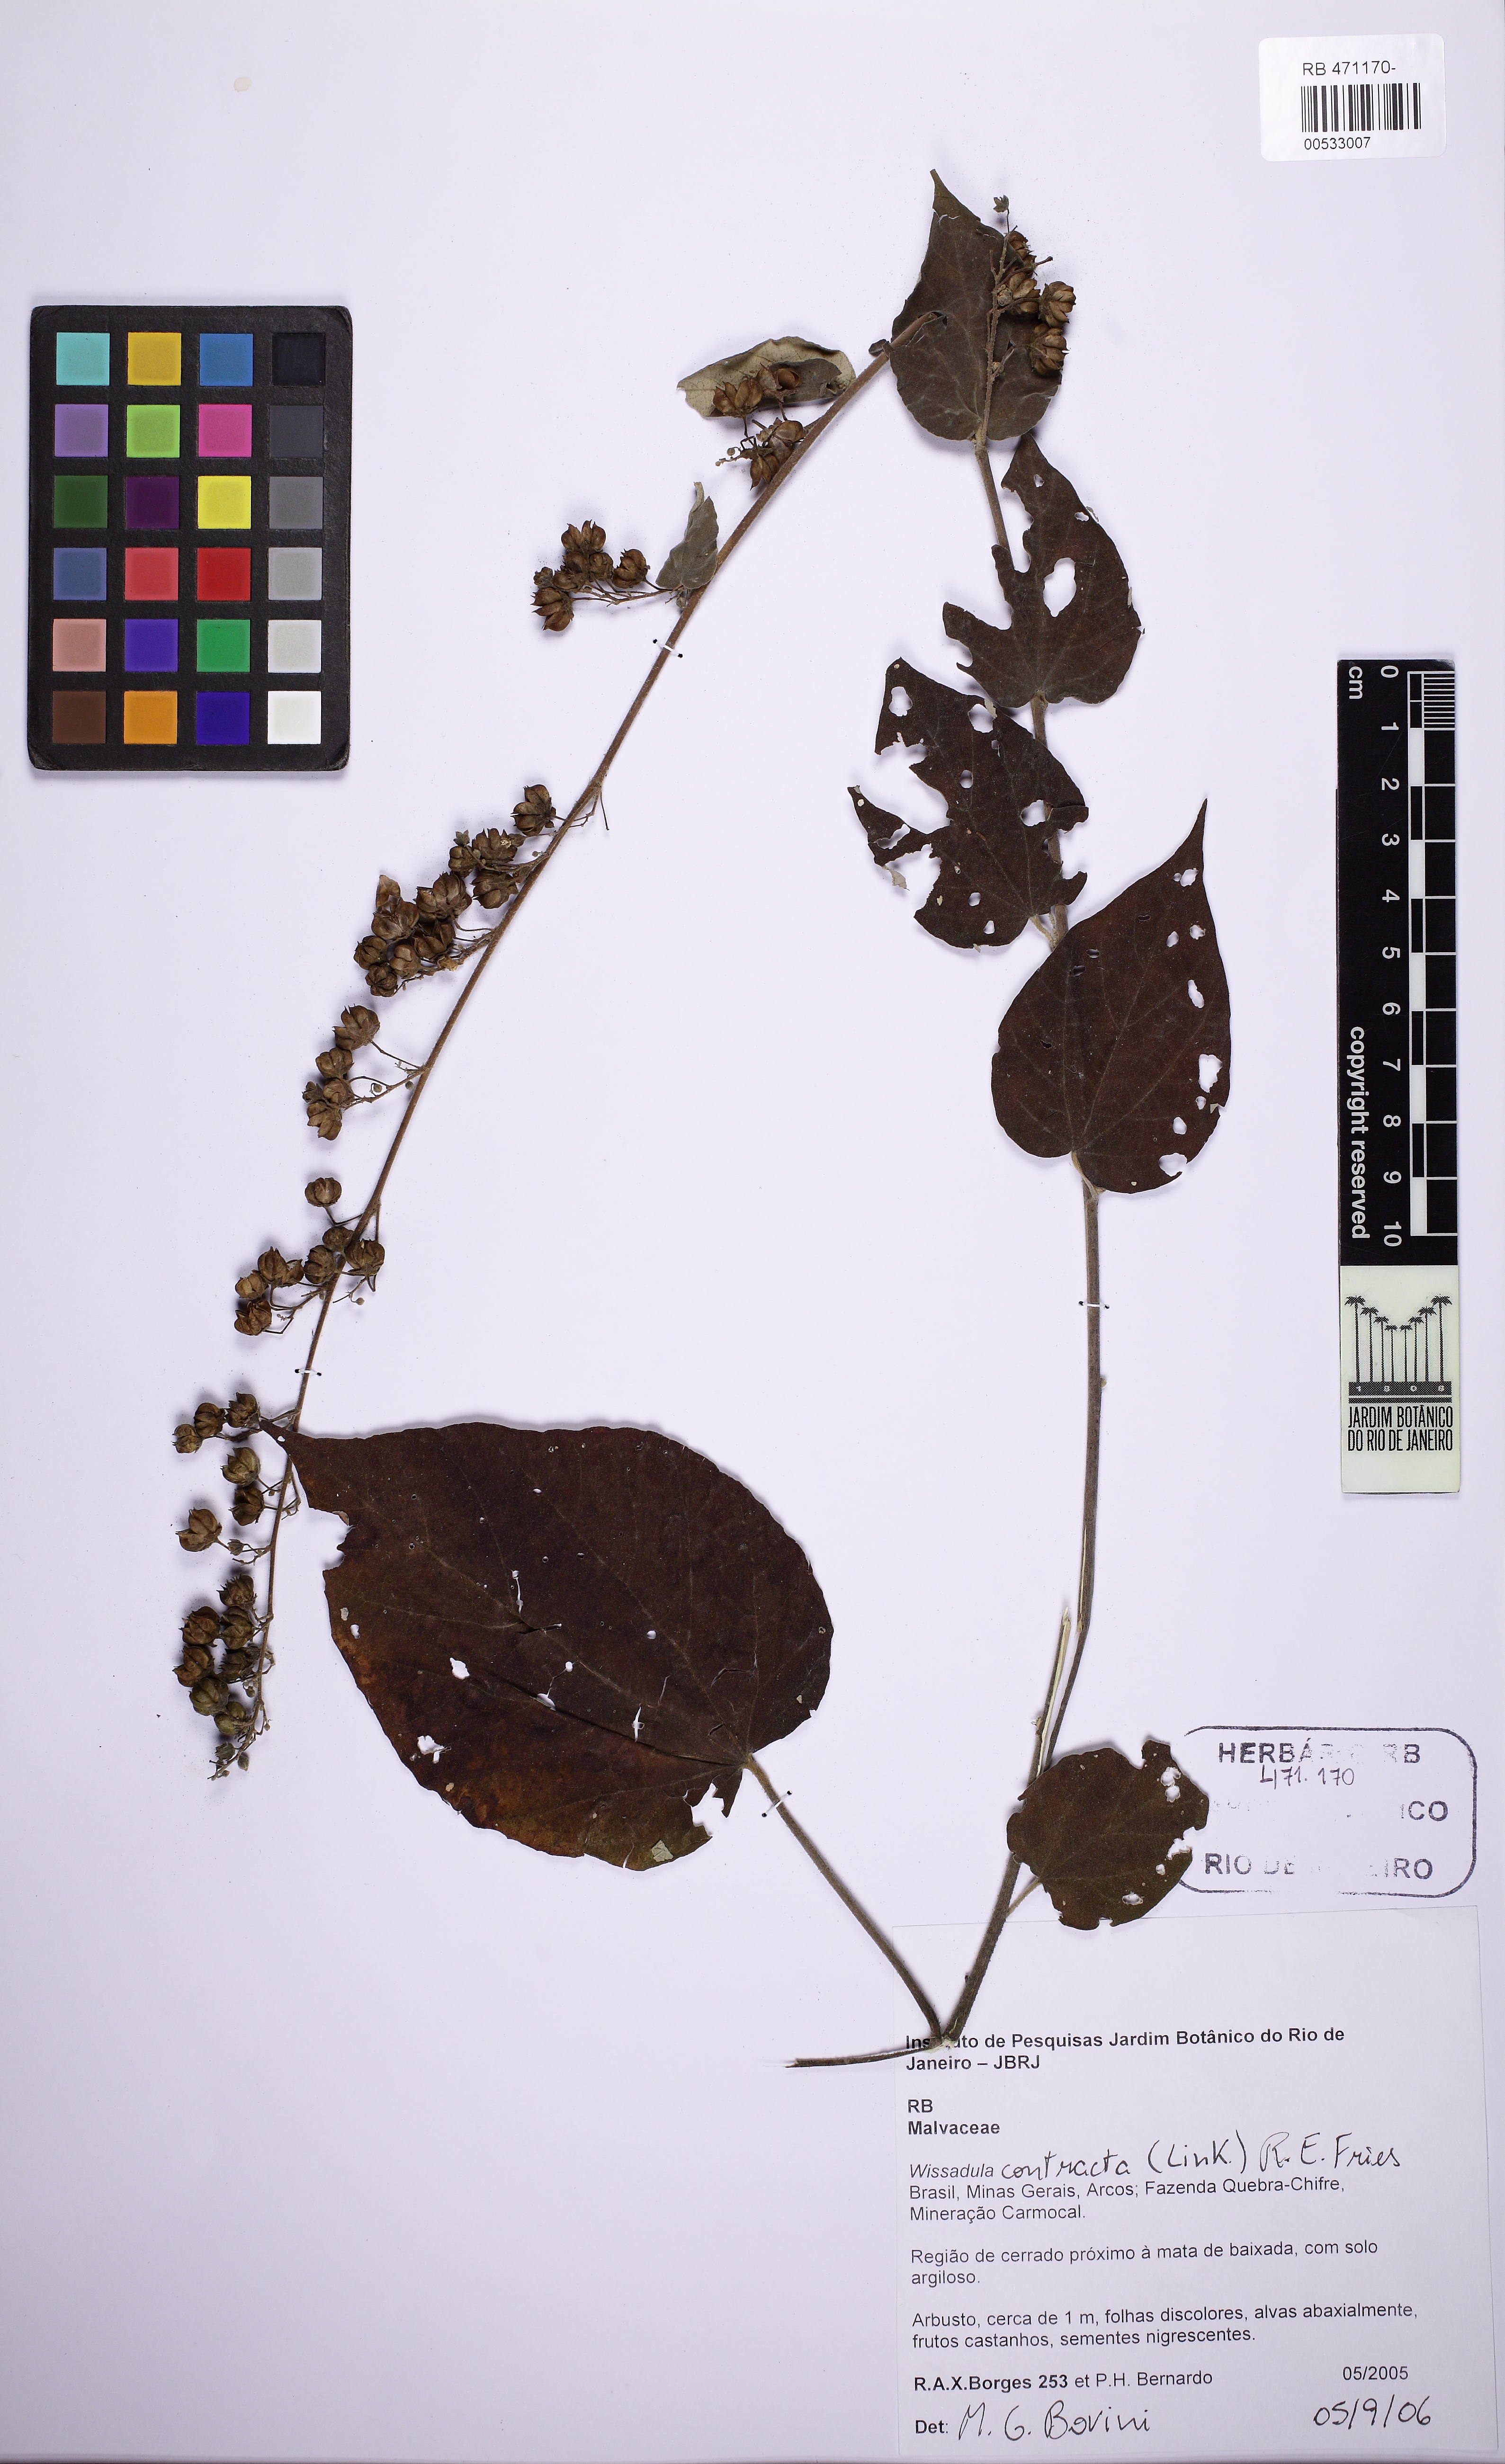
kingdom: Plantae
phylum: Tracheophyta
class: Magnoliopsida
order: Malvales
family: Malvaceae
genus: Wissadula
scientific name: Wissadula contracta
